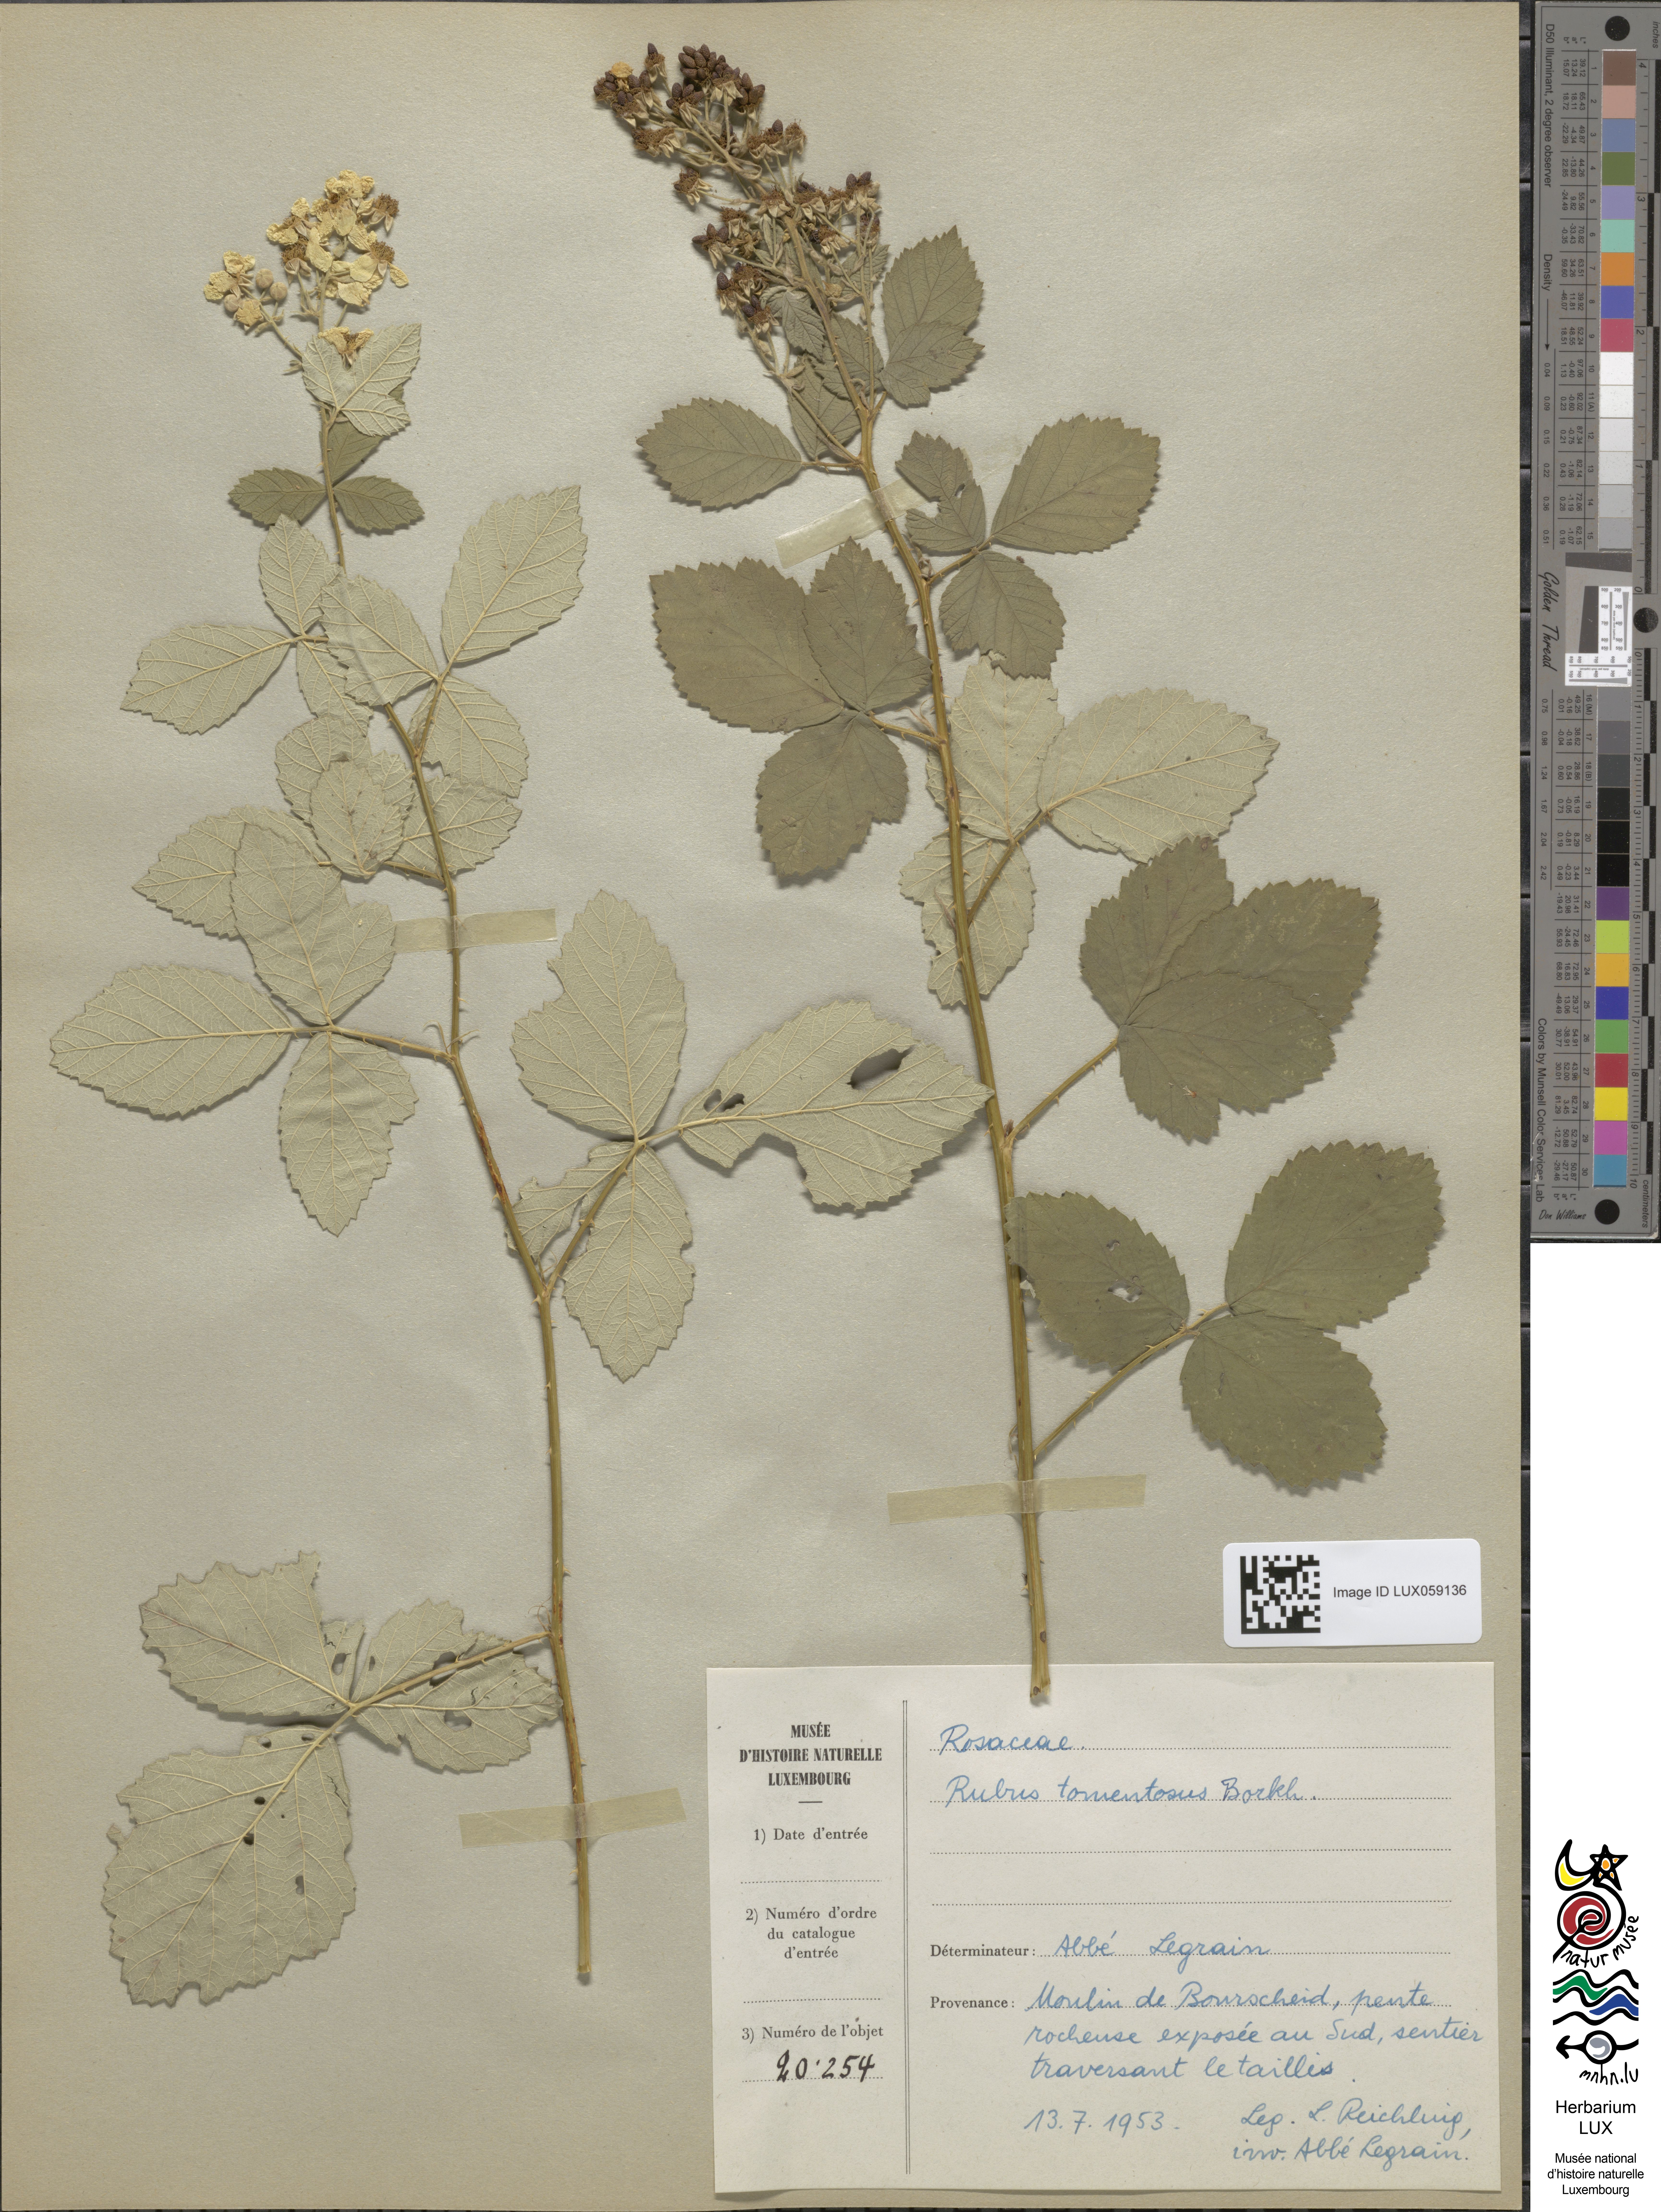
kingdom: Plantae
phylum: Tracheophyta
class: Magnoliopsida
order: Rosales
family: Rosaceae
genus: Rubus
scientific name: Rubus canescens
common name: Wooly blackberry
